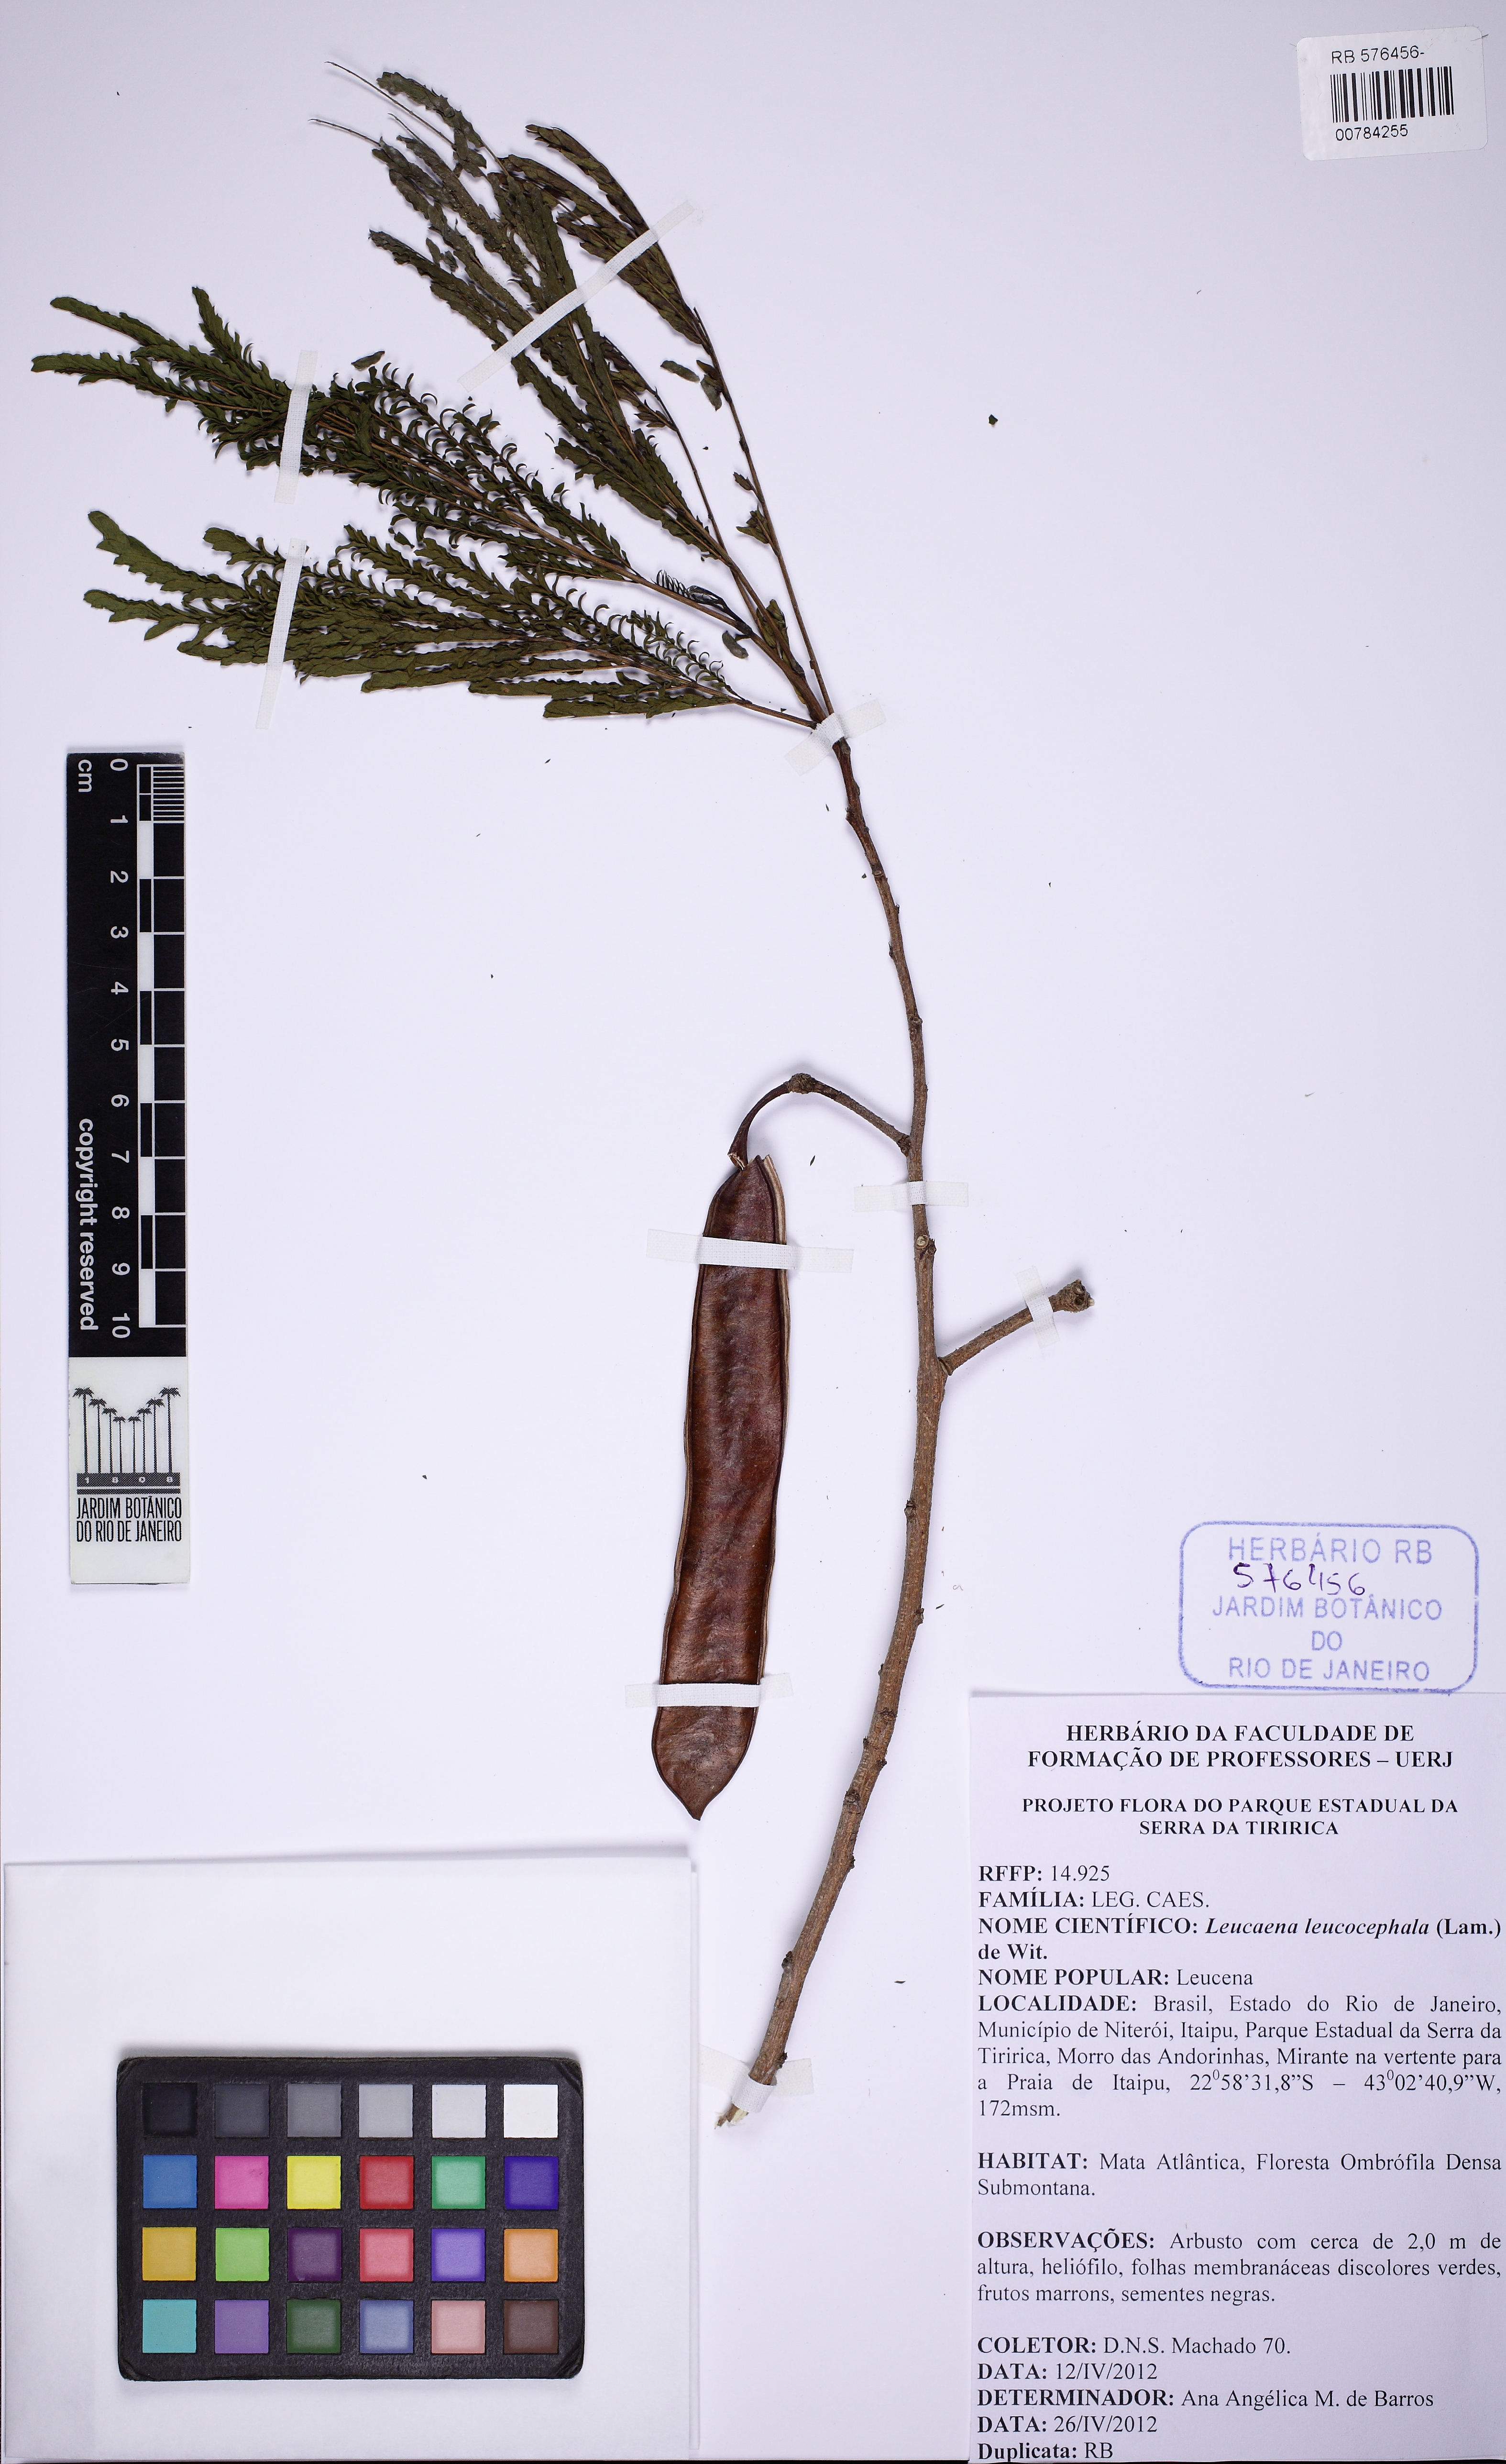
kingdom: Plantae
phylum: Tracheophyta
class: Magnoliopsida
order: Fabales
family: Fabaceae
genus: Leucaena
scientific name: Leucaena leucocephala
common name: White leadtree
